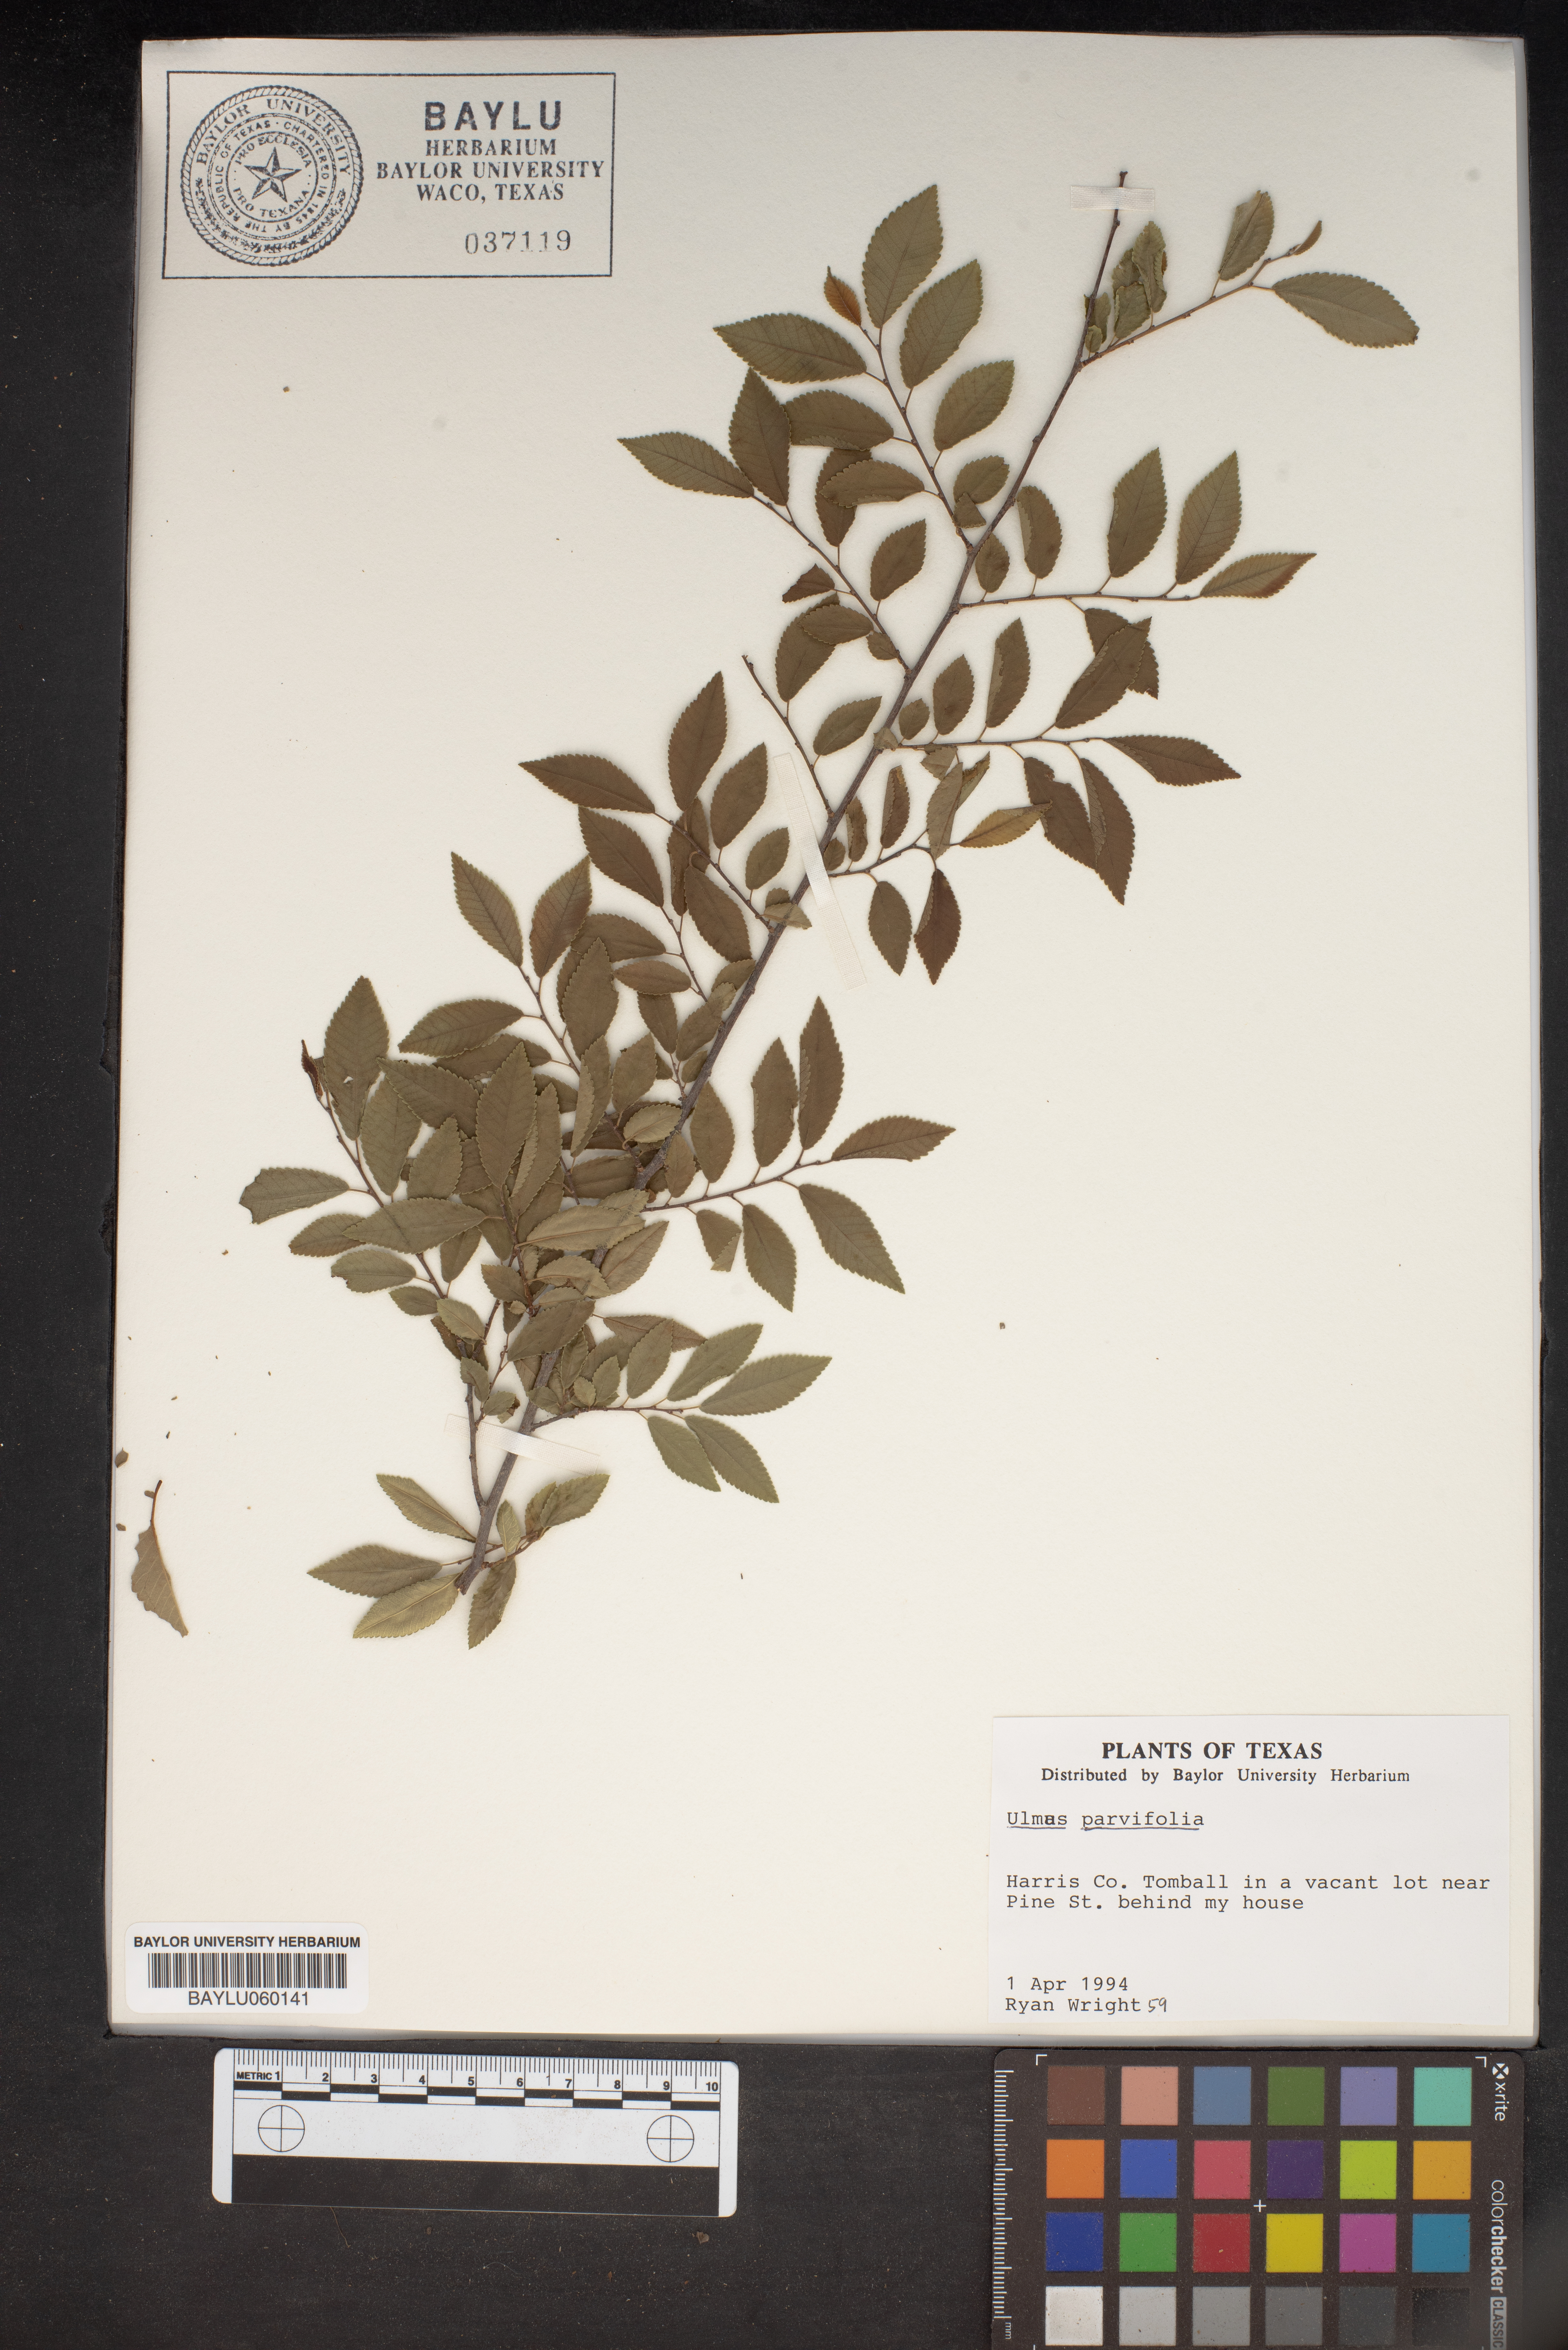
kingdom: Plantae
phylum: Tracheophyta
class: Magnoliopsida
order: Rosales
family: Ulmaceae
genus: Ulmus
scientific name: Ulmus parvifolia
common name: Chinese elm
